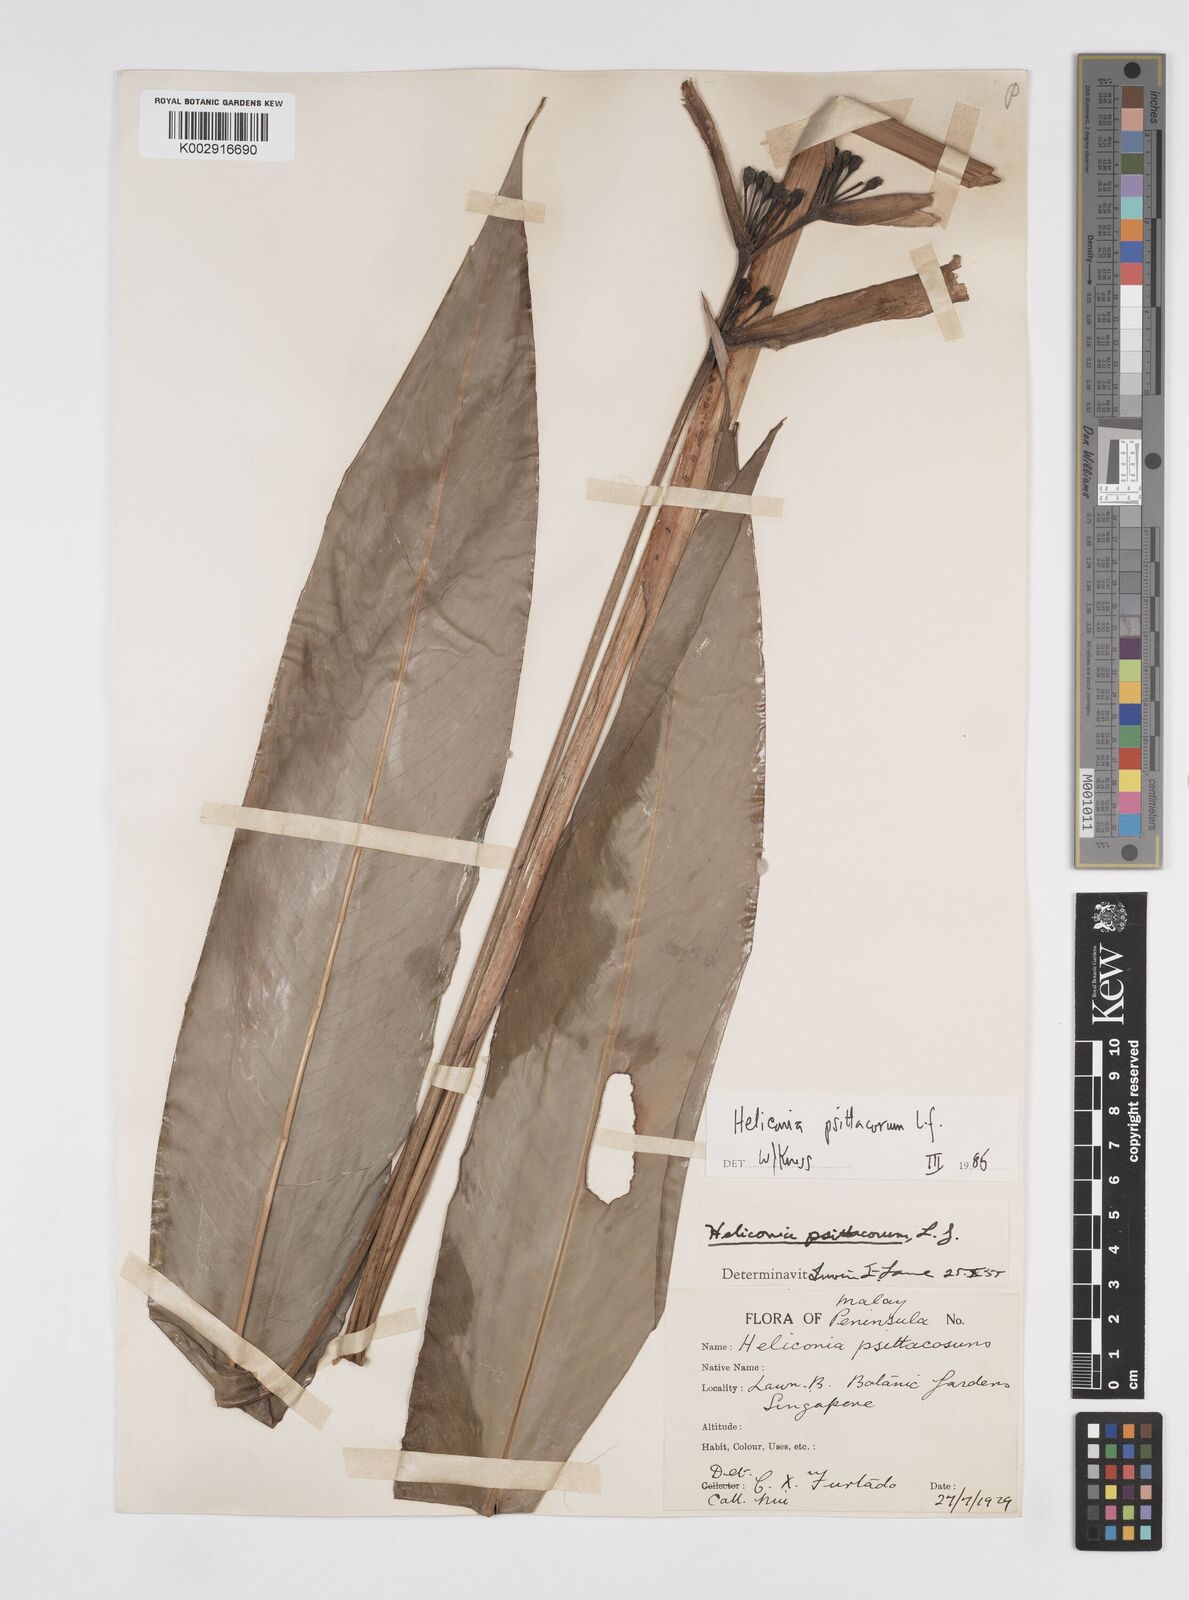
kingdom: Plantae
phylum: Tracheophyta
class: Liliopsida
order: Zingiberales
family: Heliconiaceae
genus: Heliconia
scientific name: Heliconia psittacorum
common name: Parrot's-flower
